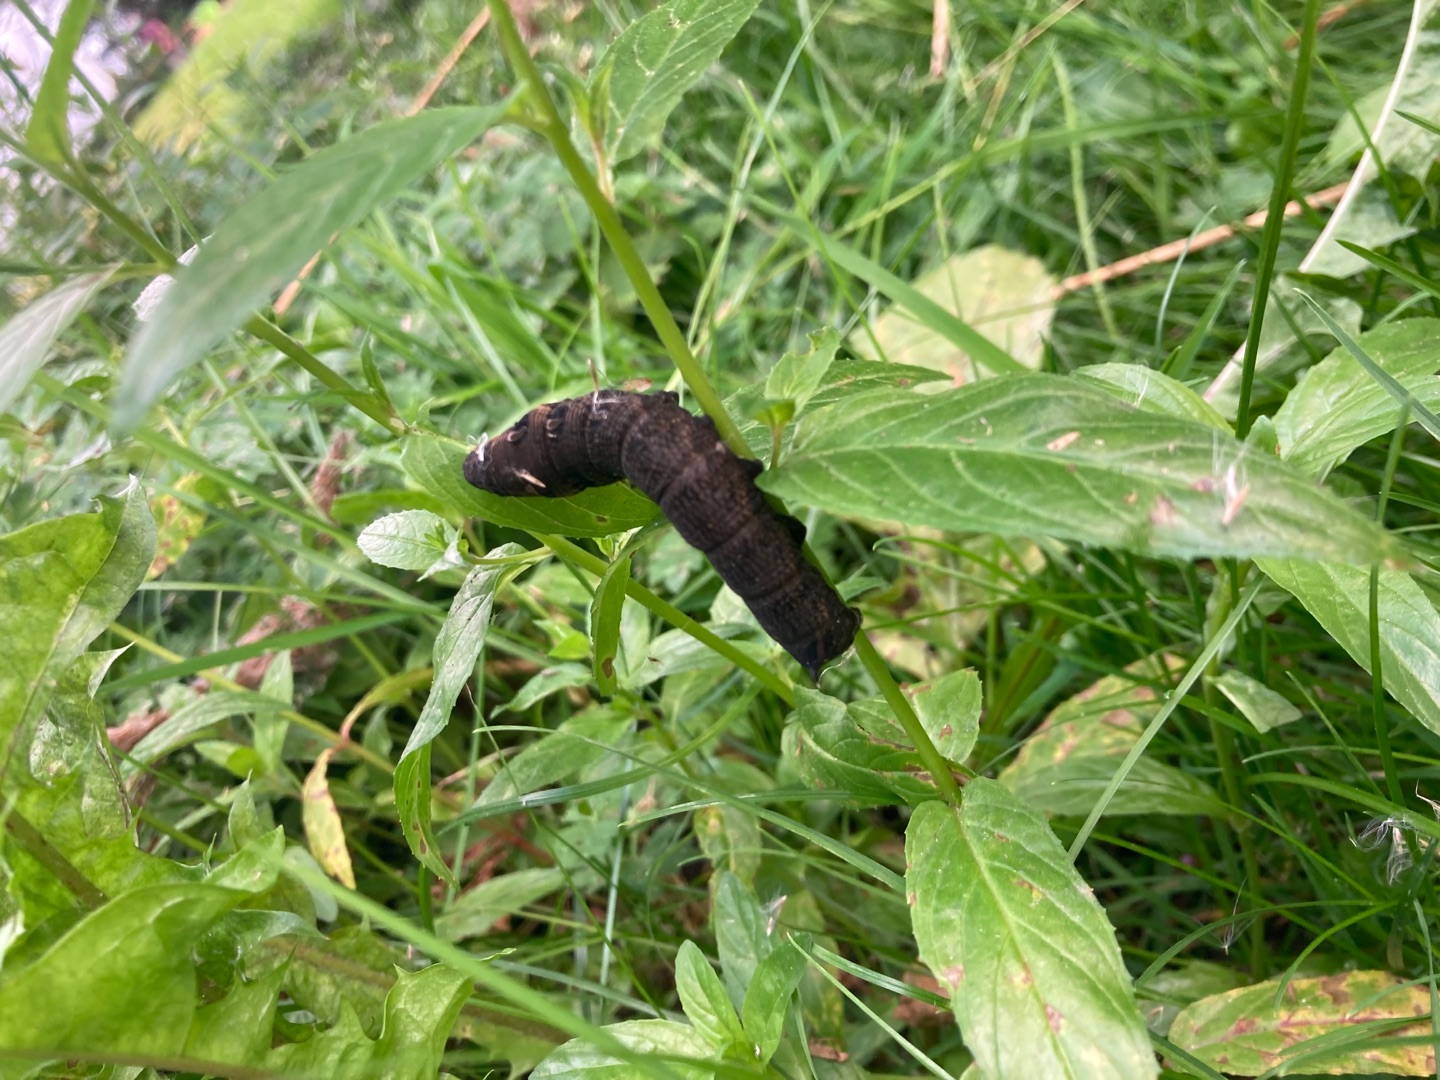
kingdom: Animalia
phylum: Arthropoda
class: Insecta
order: Lepidoptera
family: Sphingidae
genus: Deilephila
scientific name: Deilephila elpenor
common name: Dueurtsværmer
